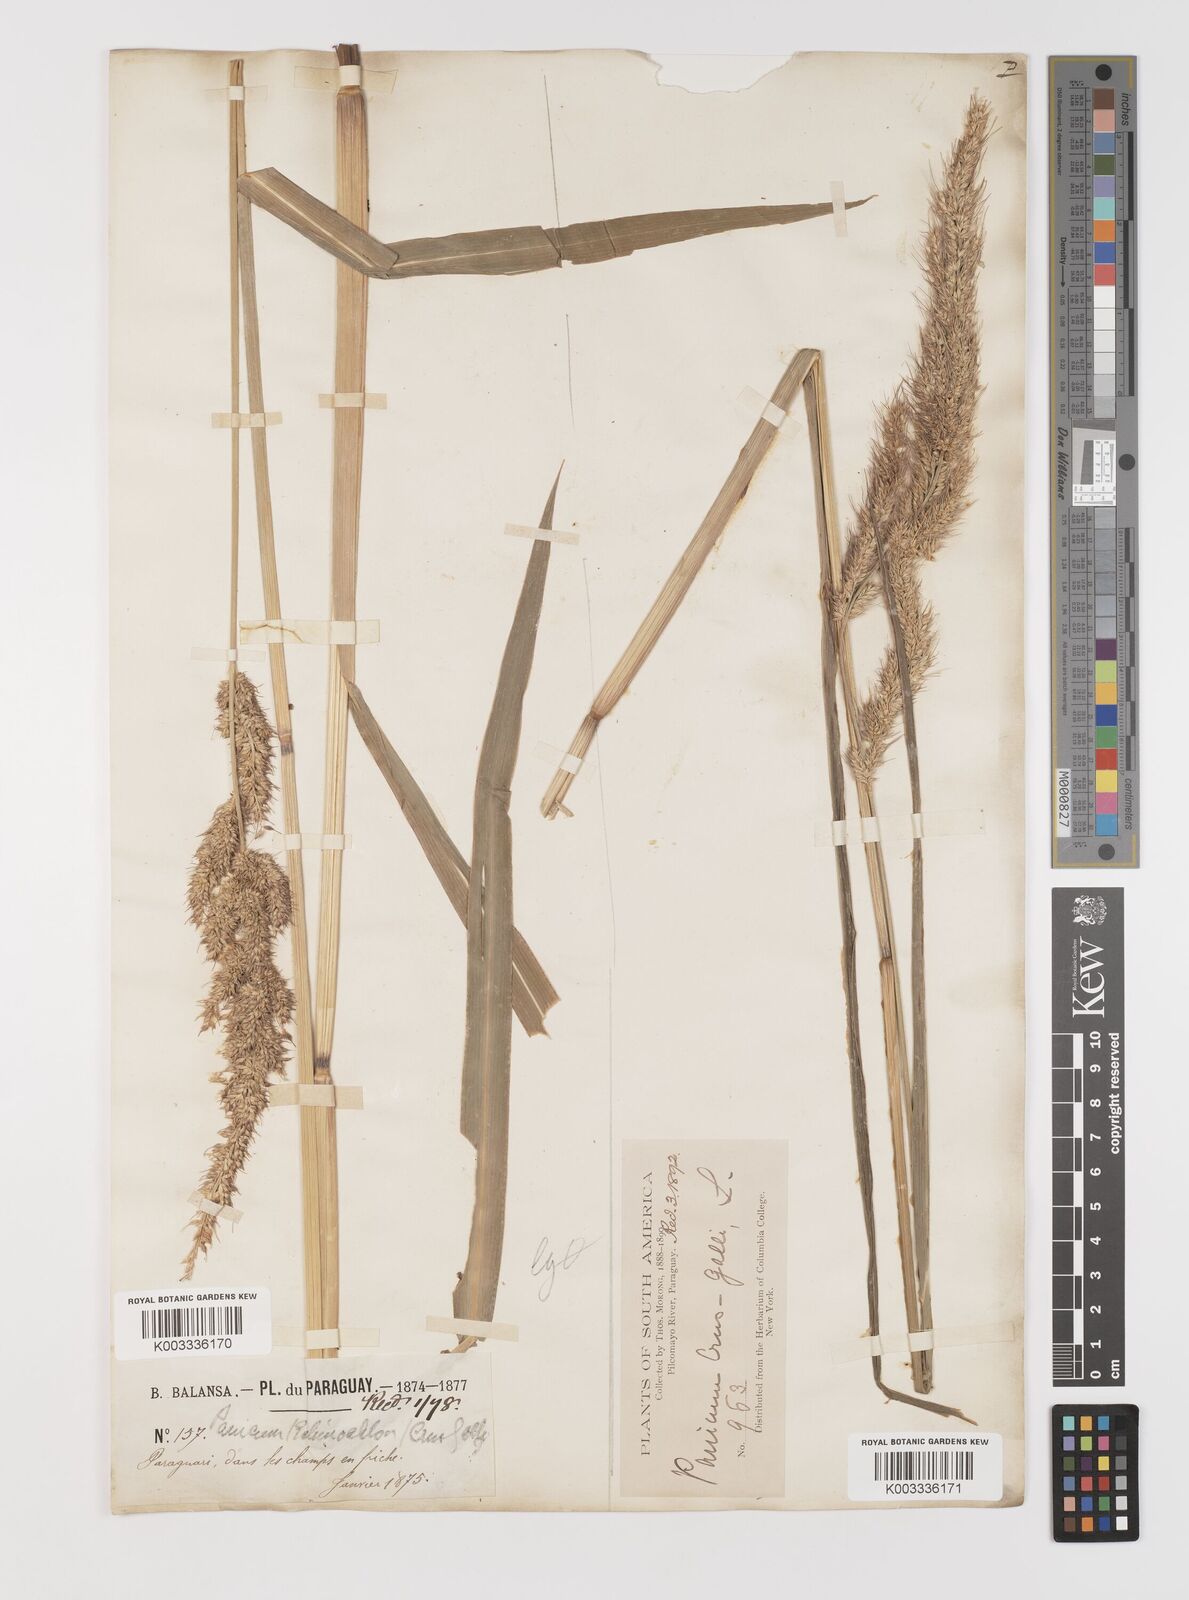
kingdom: Plantae
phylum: Tracheophyta
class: Liliopsida
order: Poales
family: Poaceae
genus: Echinochloa
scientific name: Echinochloa crus-pavonis
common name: Gulf cockspur grass
